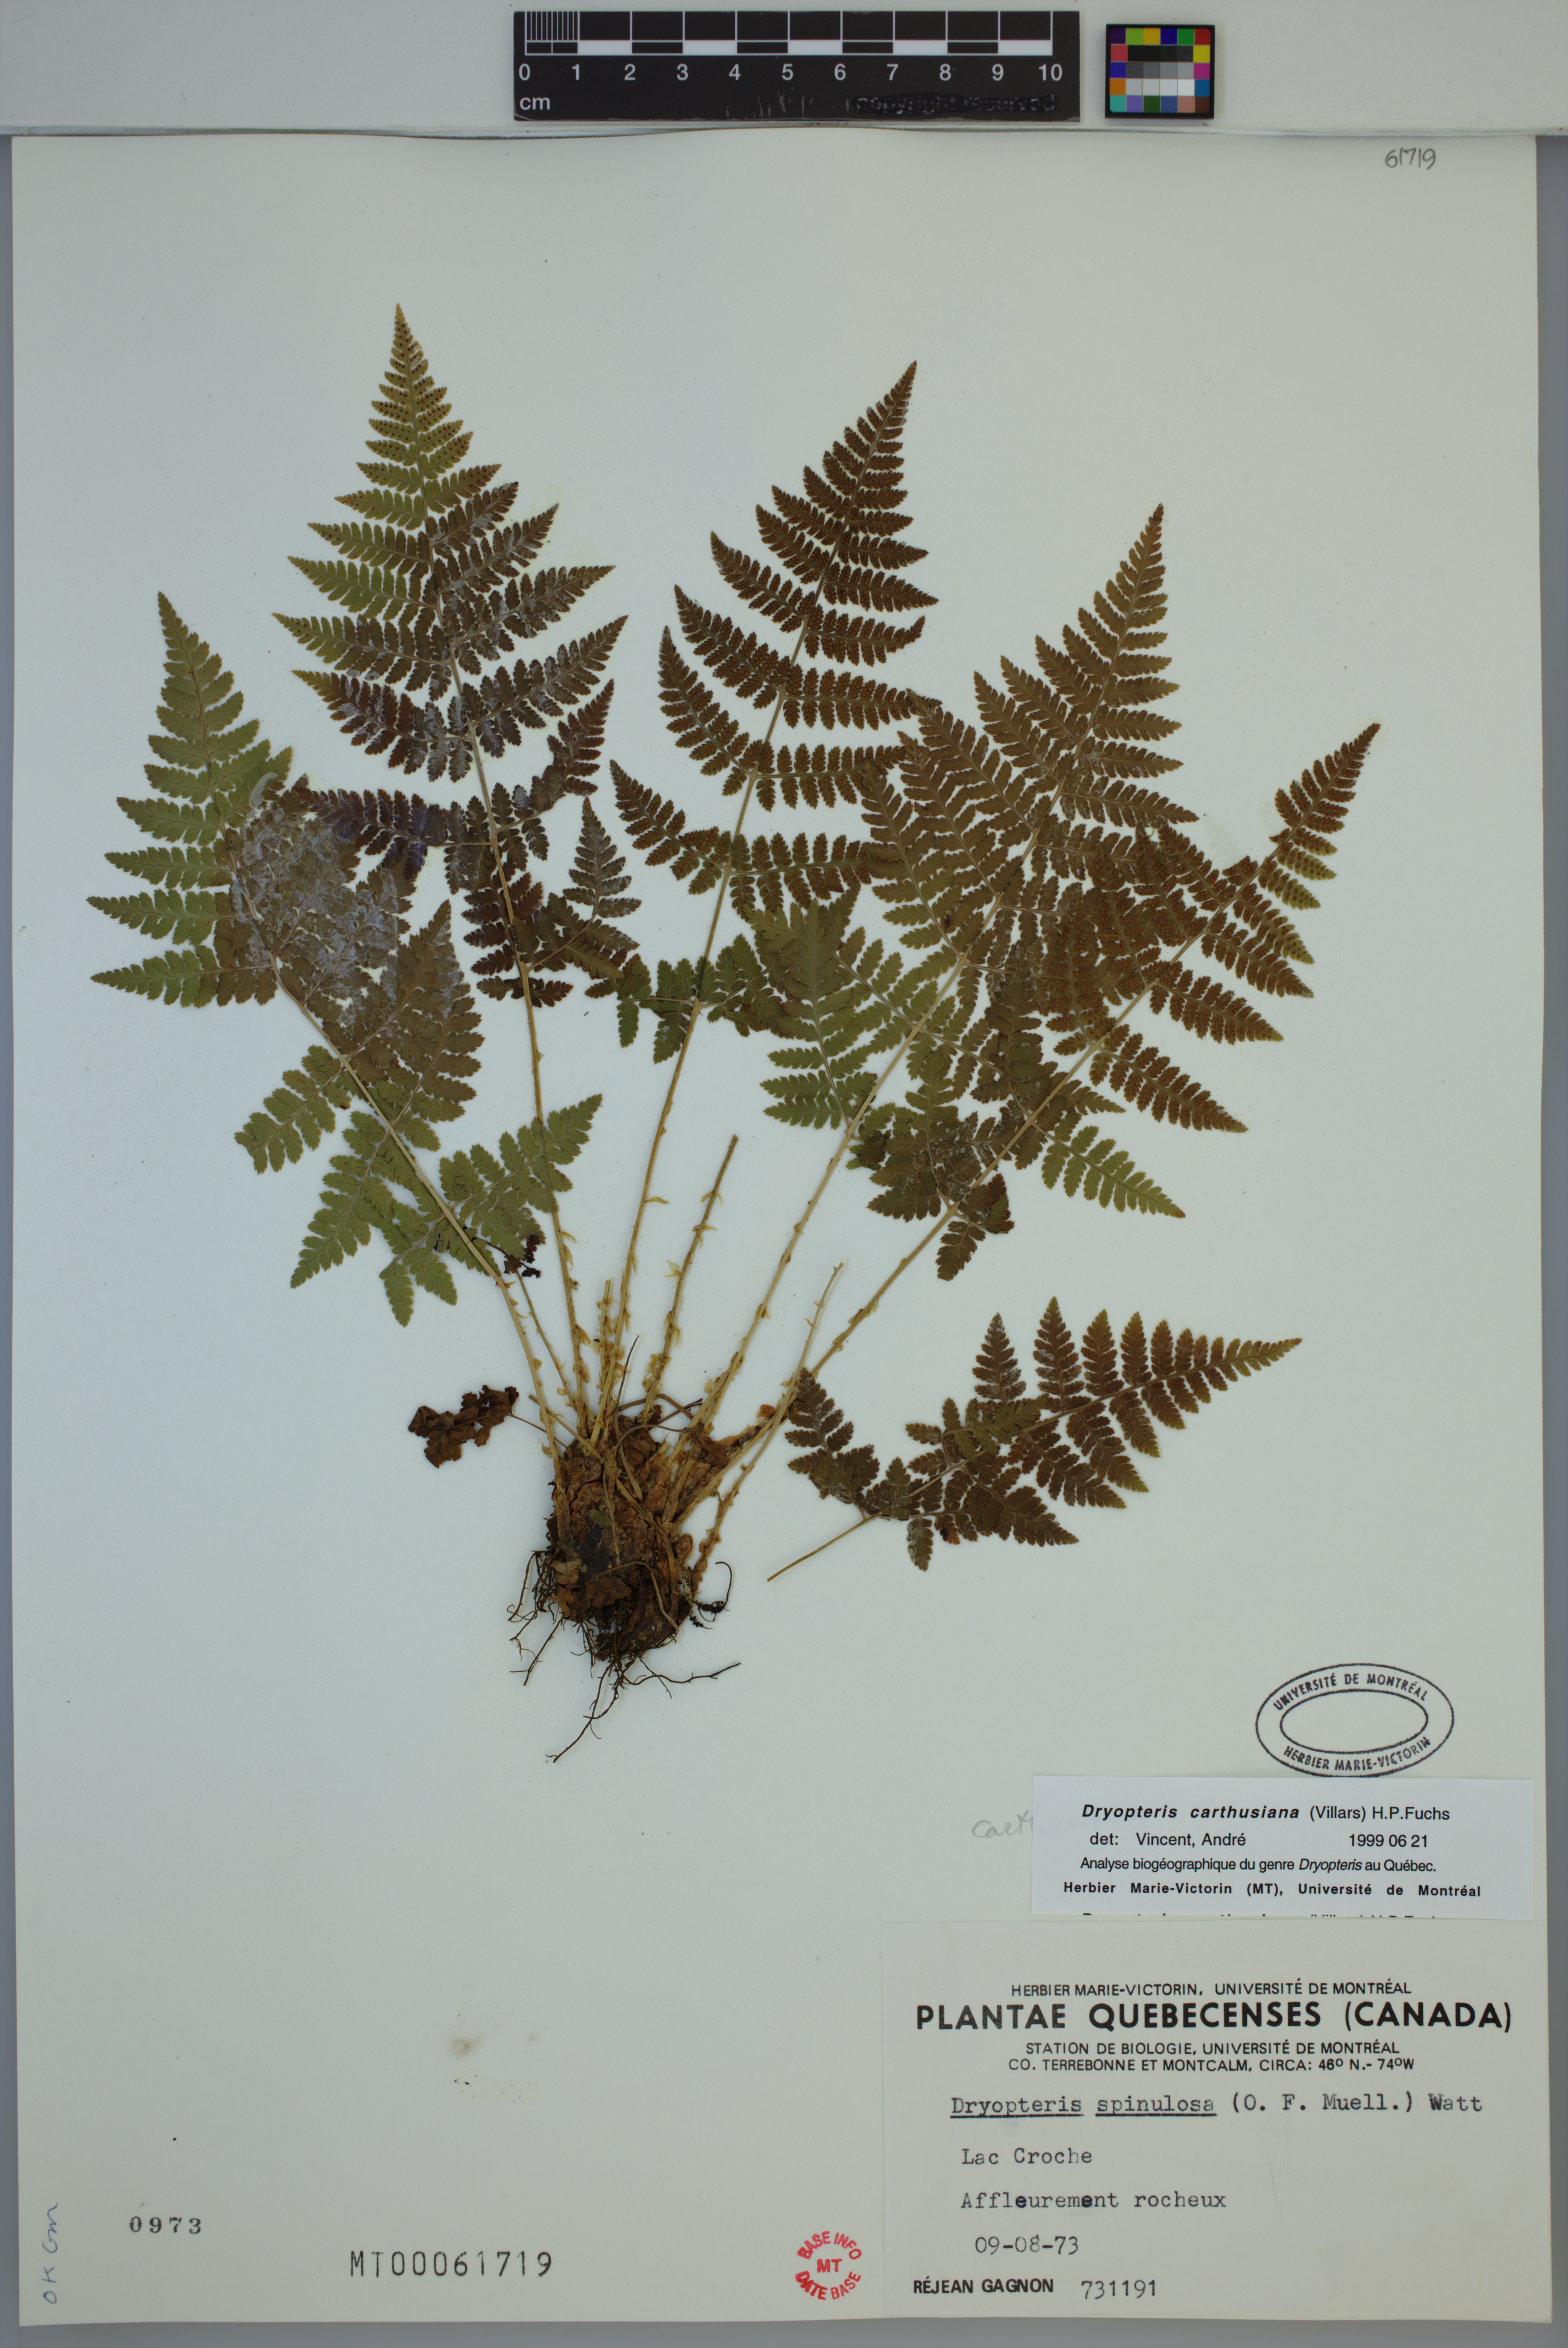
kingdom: Plantae
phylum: Tracheophyta
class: Polypodiopsida
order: Polypodiales
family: Dryopteridaceae
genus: Dryopteris
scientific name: Dryopteris carthusiana
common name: Narrow buckler-fern
